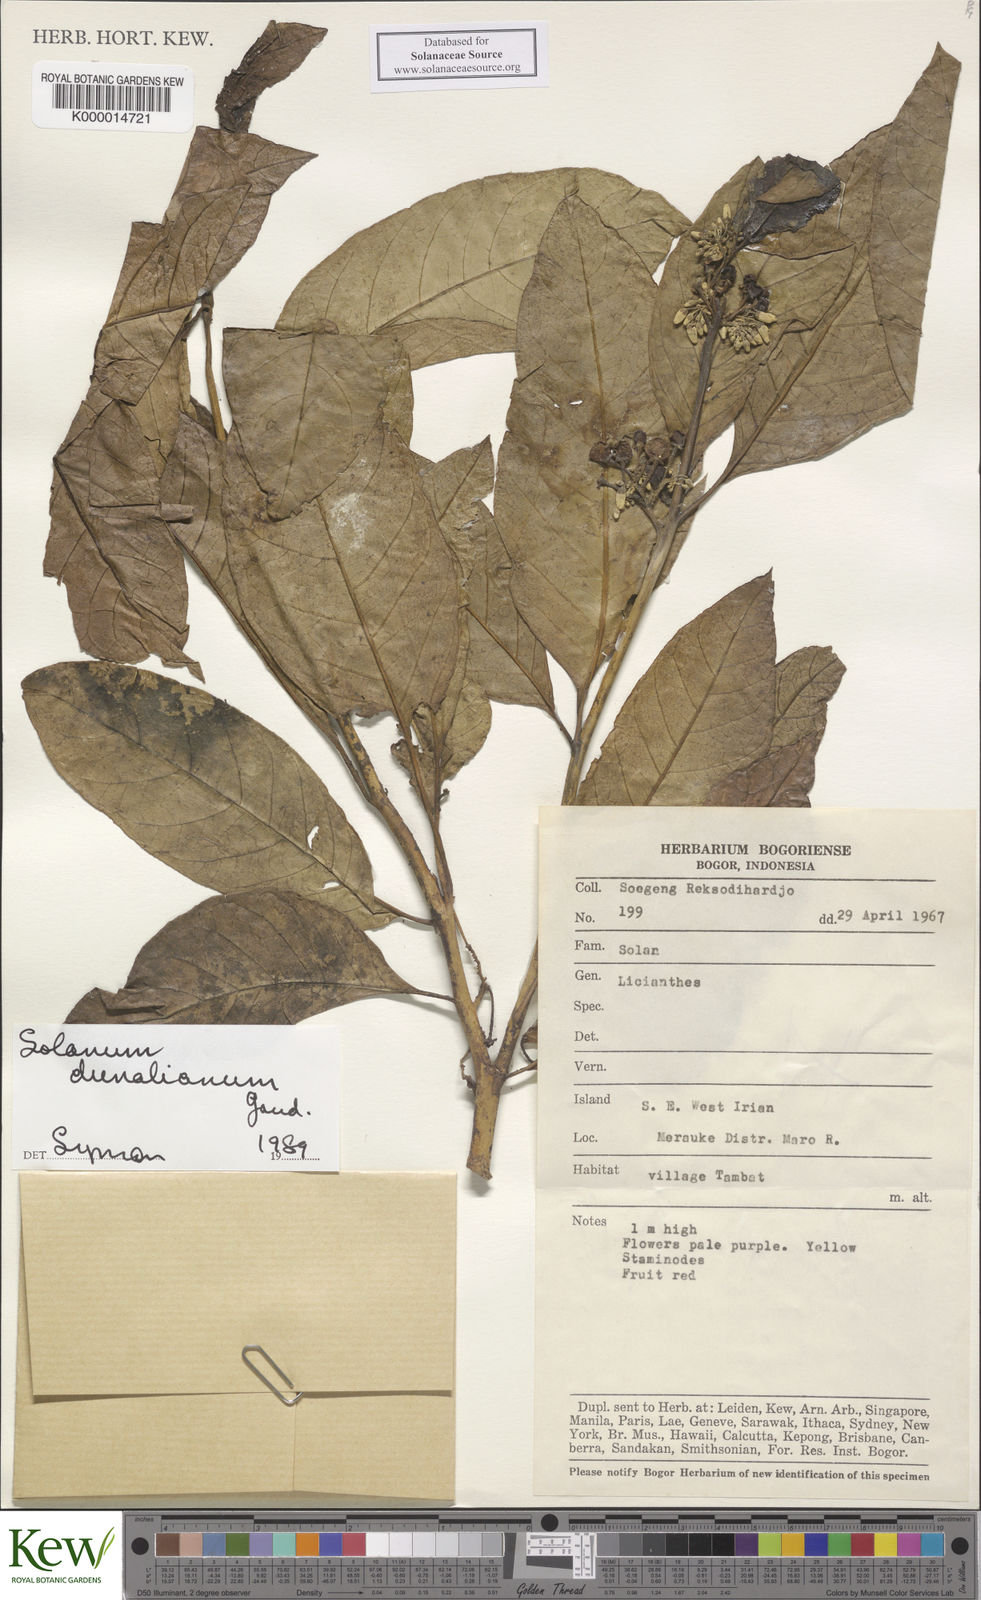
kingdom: Plantae
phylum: Tracheophyta
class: Magnoliopsida
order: Solanales
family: Solanaceae
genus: Solanum
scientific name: Solanum dunalianum
